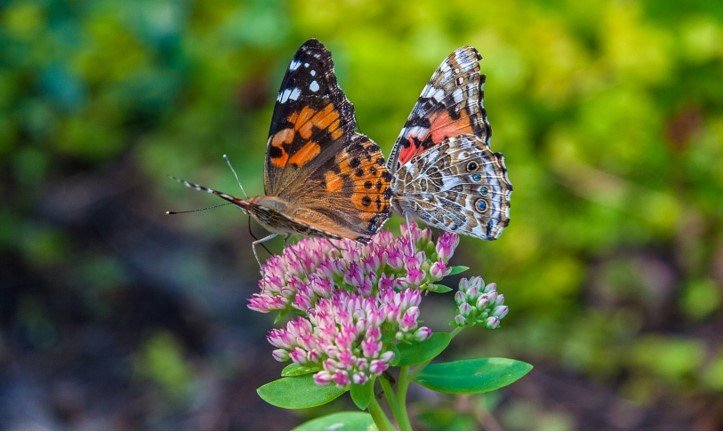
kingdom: Animalia
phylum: Arthropoda
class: Insecta
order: Lepidoptera
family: Nymphalidae
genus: Vanessa
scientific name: Vanessa cardui
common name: Painted Lady
